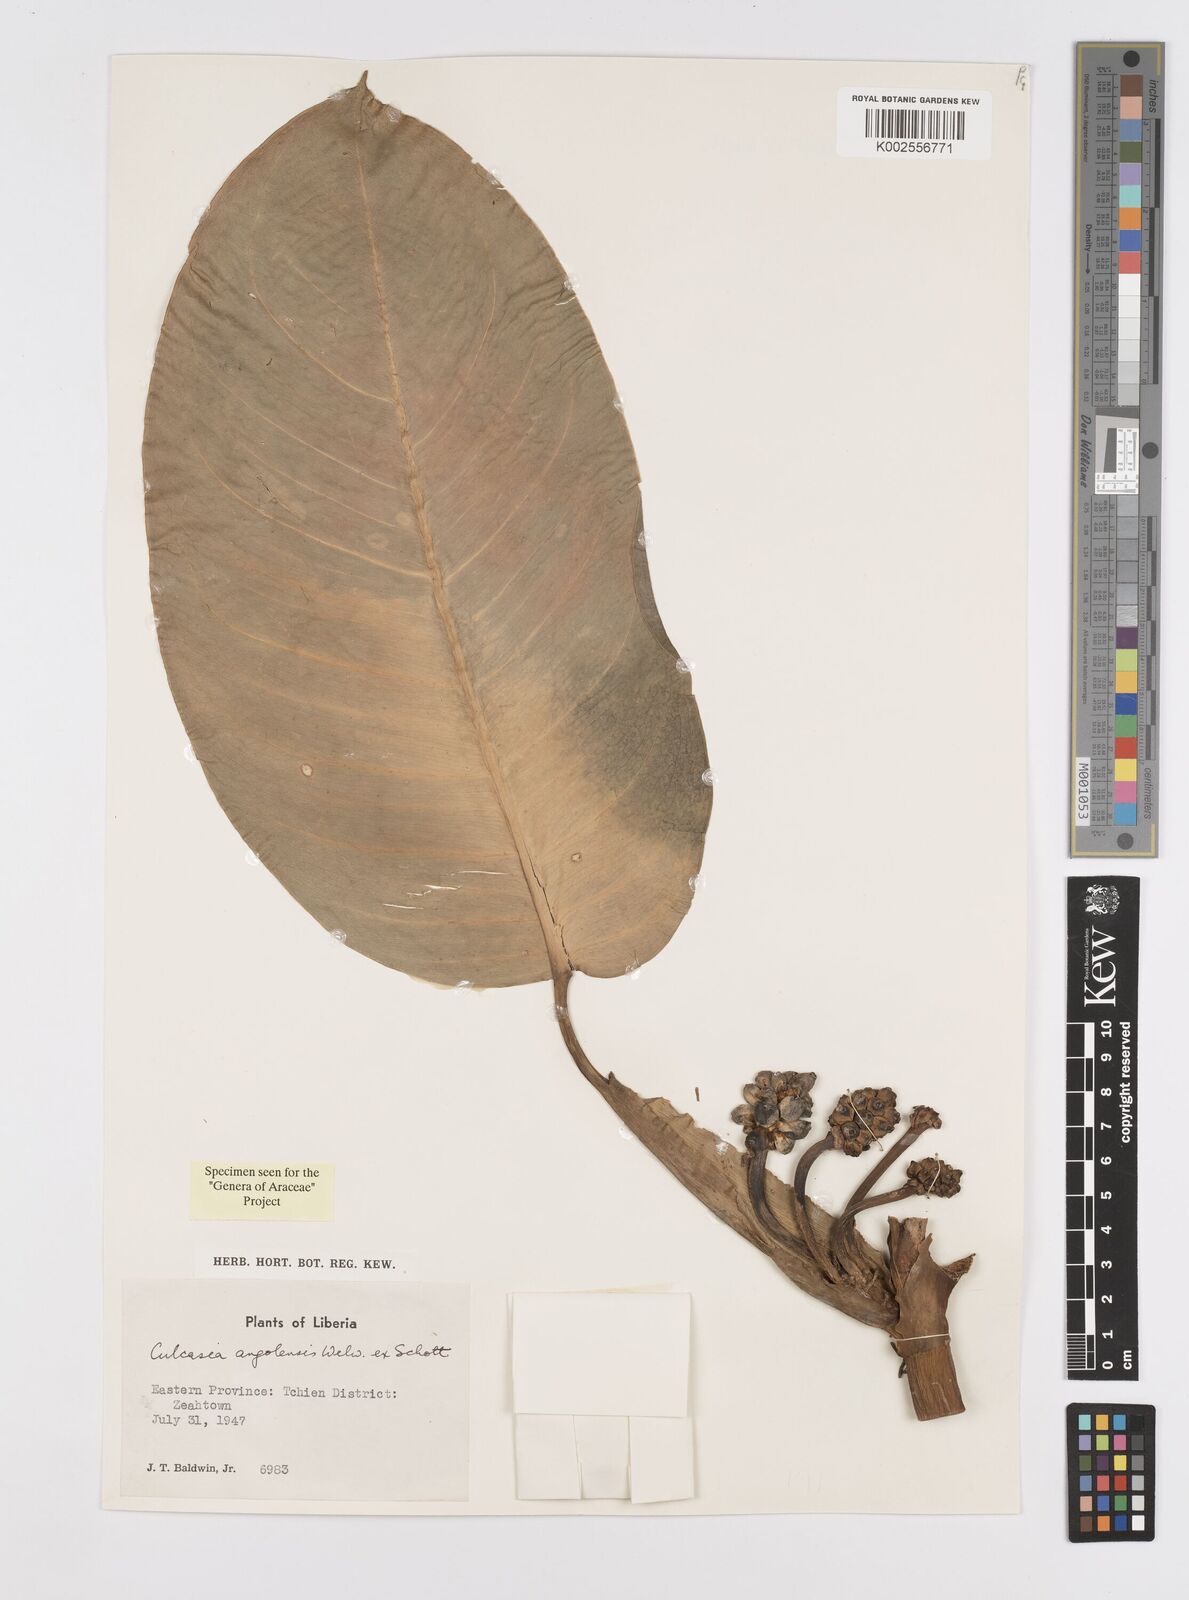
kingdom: Plantae
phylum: Tracheophyta
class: Liliopsida
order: Alismatales
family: Araceae
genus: Culcasia
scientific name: Culcasia angolensis
